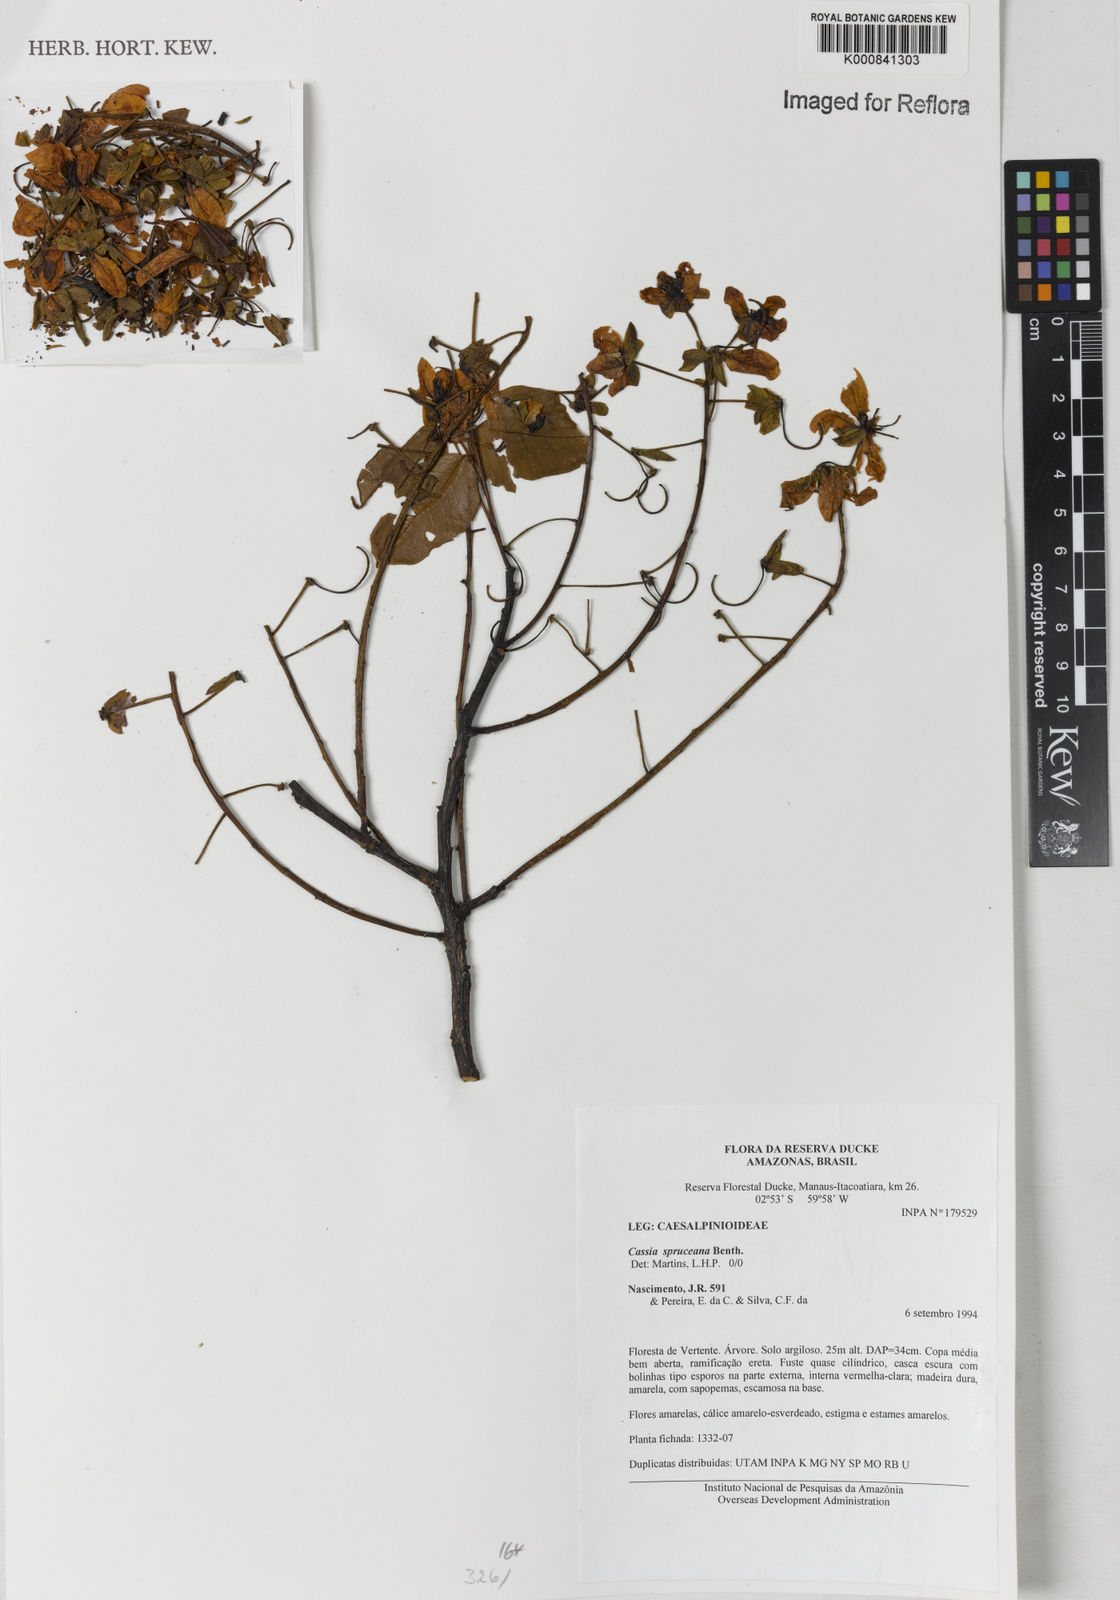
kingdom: Plantae
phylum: Tracheophyta
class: Magnoliopsida
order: Fabales
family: Fabaceae
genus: Cassia
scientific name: Cassia spruceana
